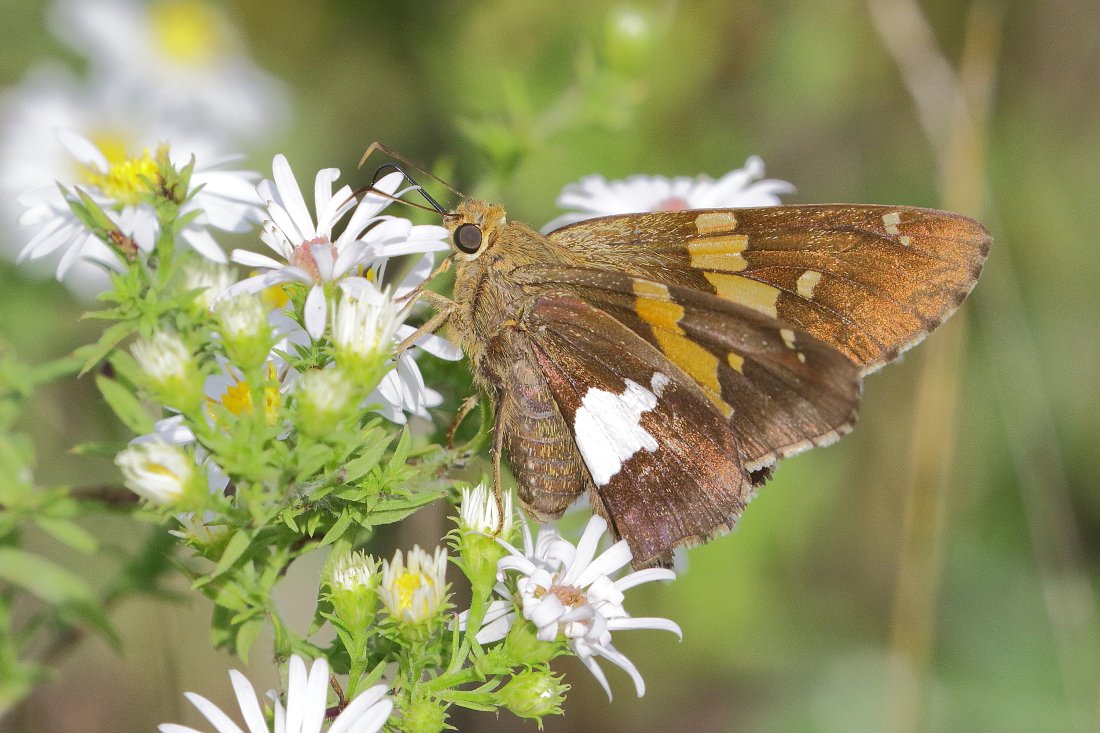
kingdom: Animalia
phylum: Arthropoda
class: Insecta
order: Lepidoptera
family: Hesperiidae
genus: Epargyreus
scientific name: Epargyreus clarus
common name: Silver-spotted Skipper
